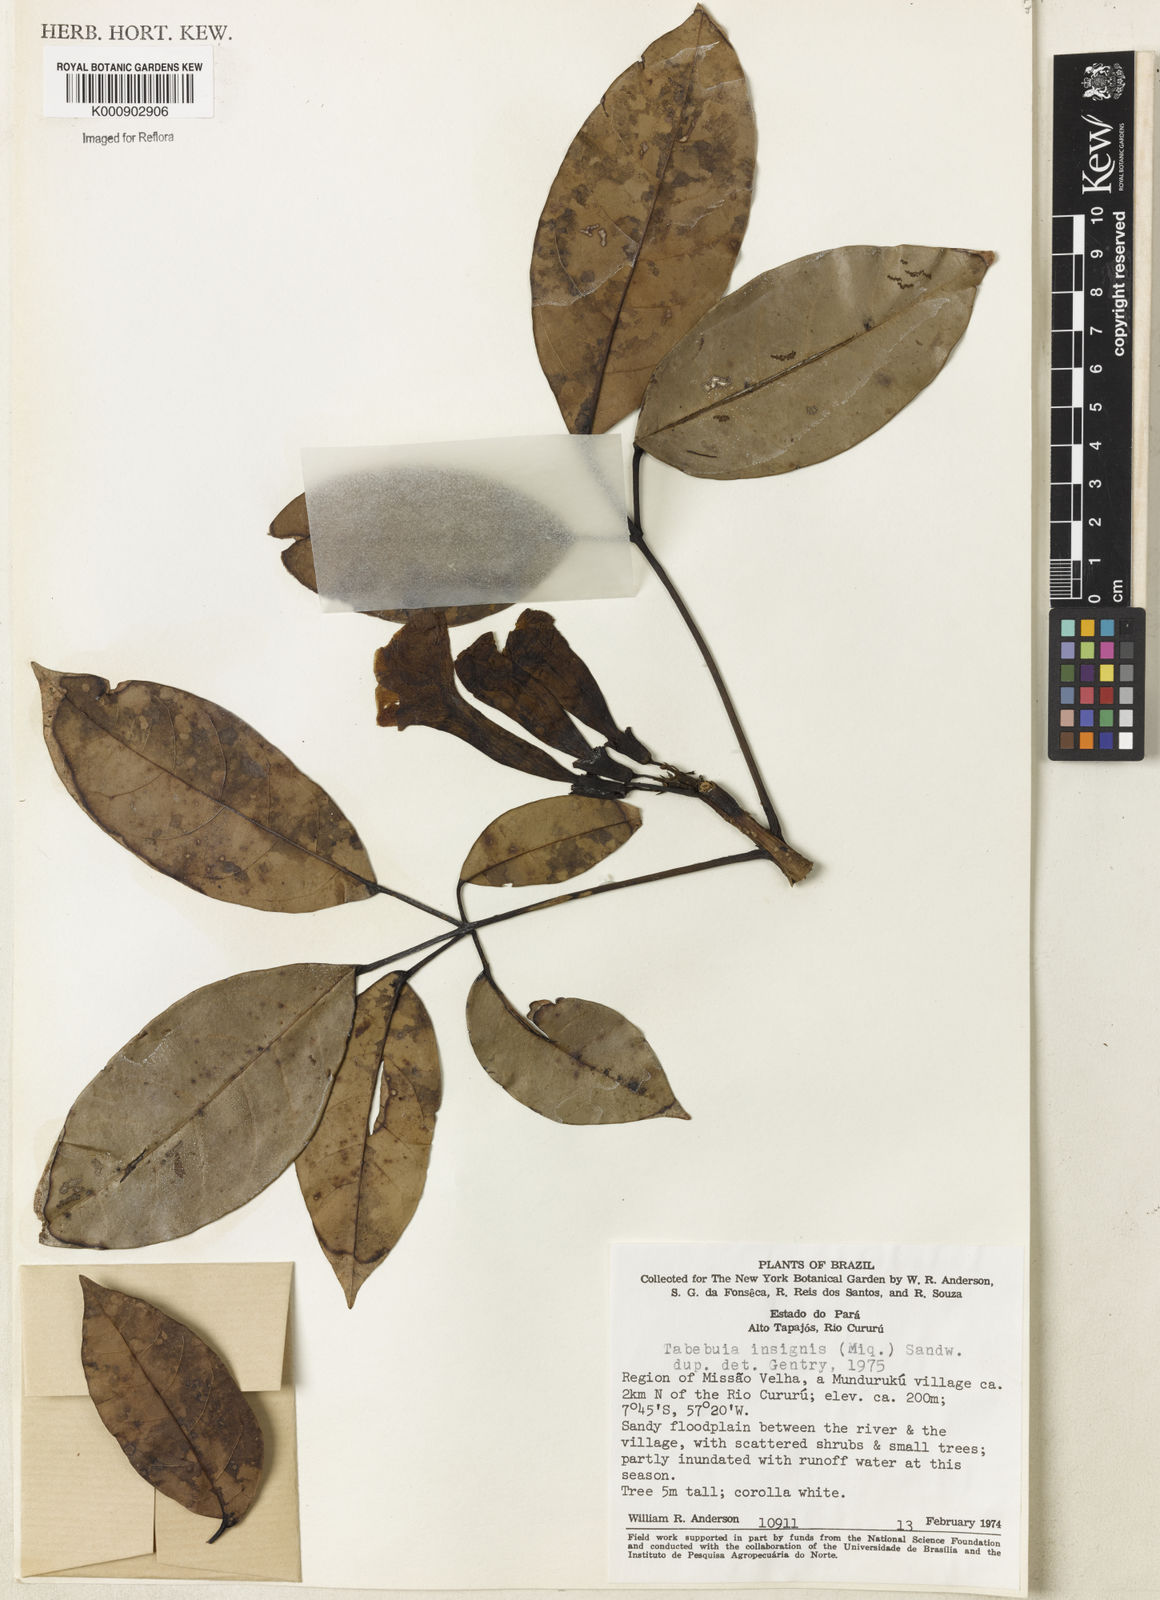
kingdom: Plantae
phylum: Tracheophyta
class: Magnoliopsida
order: Lamiales
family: Bignoniaceae
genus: Tabebuia
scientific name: Tabebuia insignis
